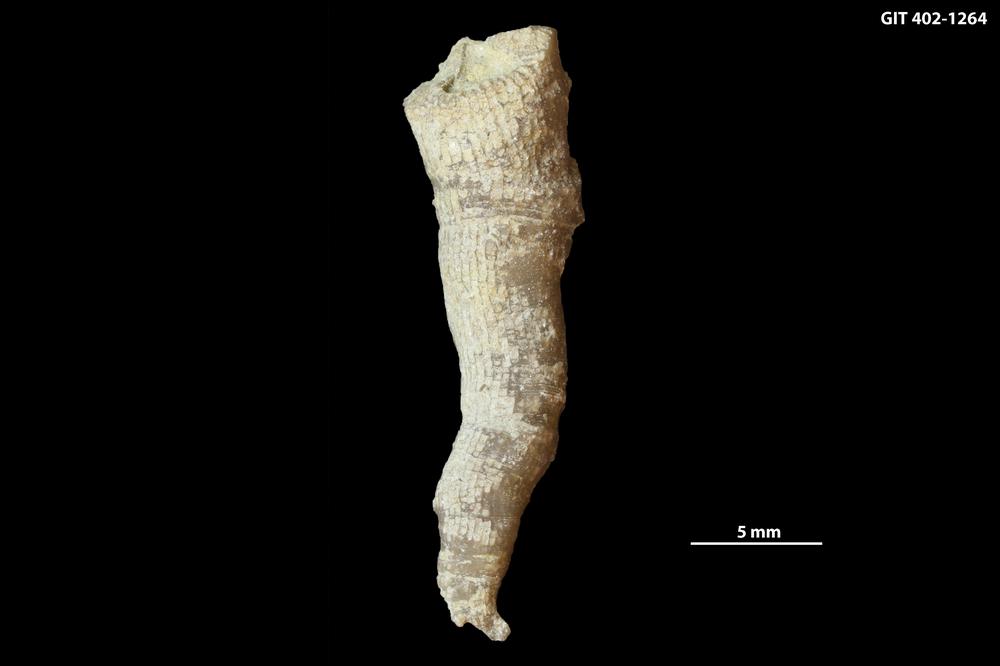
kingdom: Animalia
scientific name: Animalia
